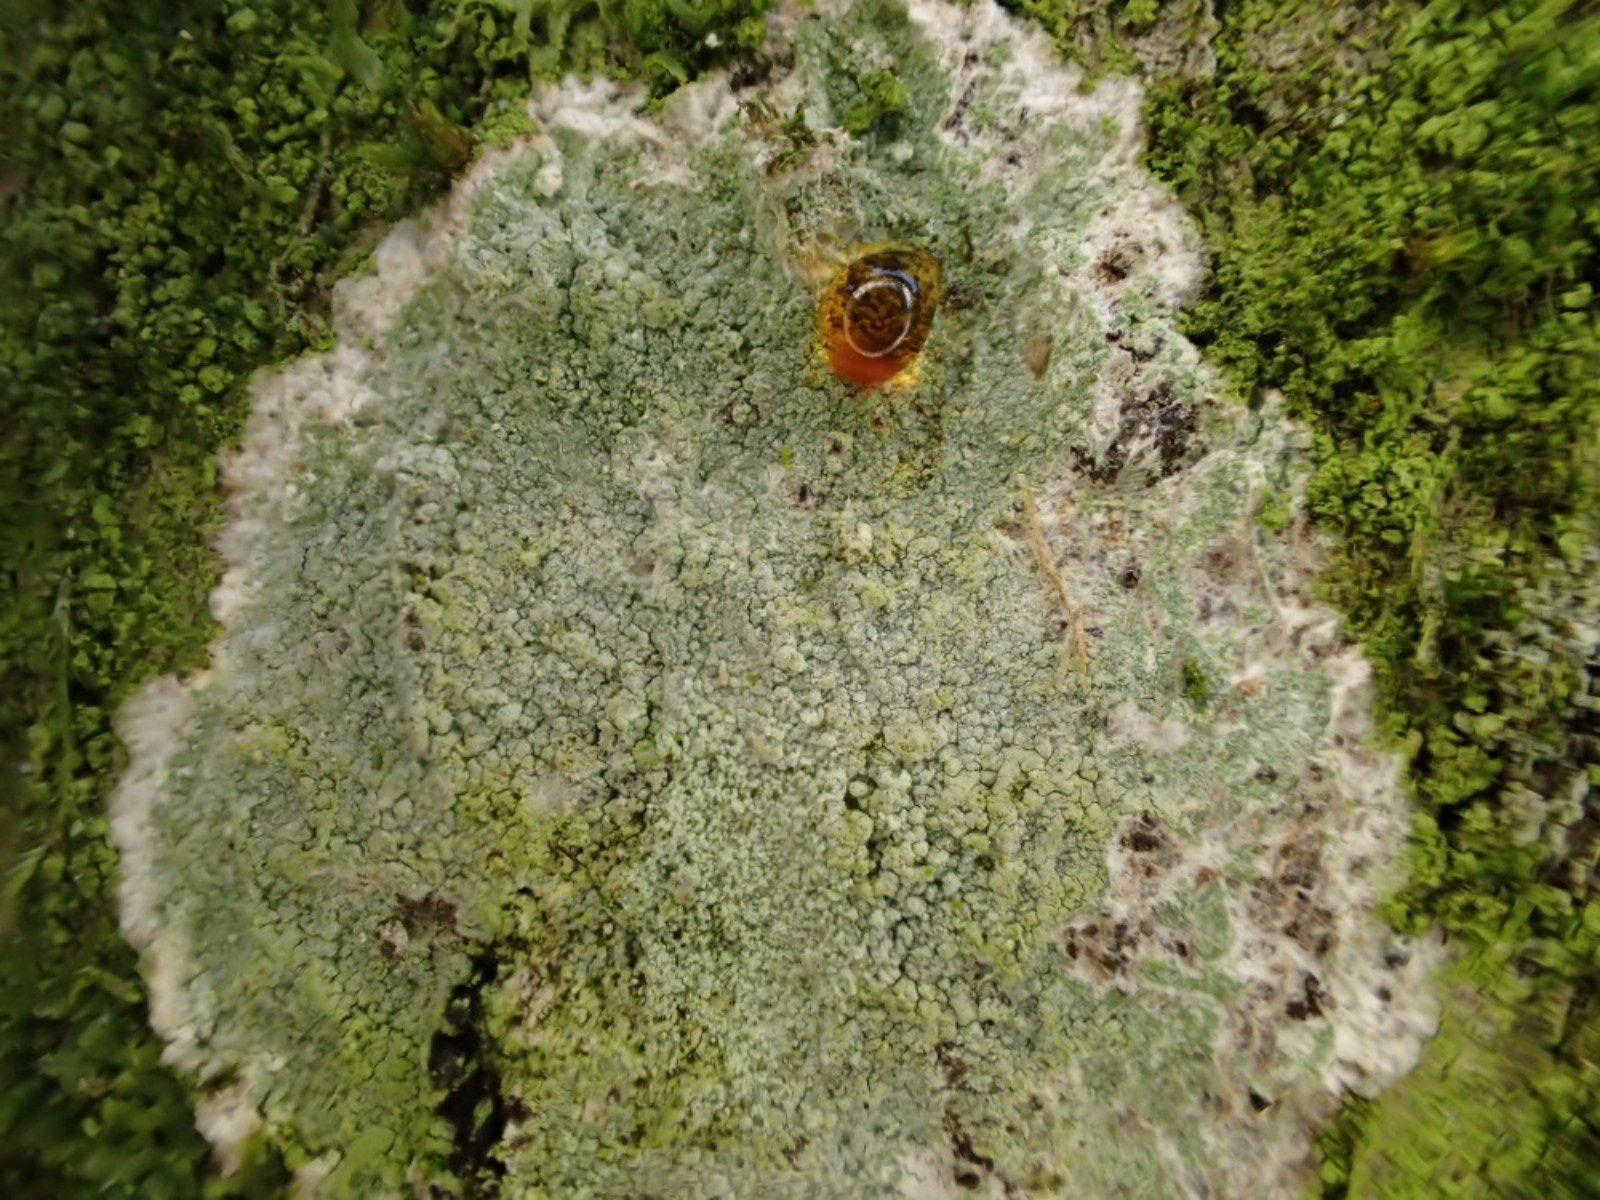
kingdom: Fungi
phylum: Ascomycota
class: Lecanoromycetes
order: Ostropales
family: Phlyctidaceae
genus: Phlyctis
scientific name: Phlyctis argena
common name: almindelig sølvlav
